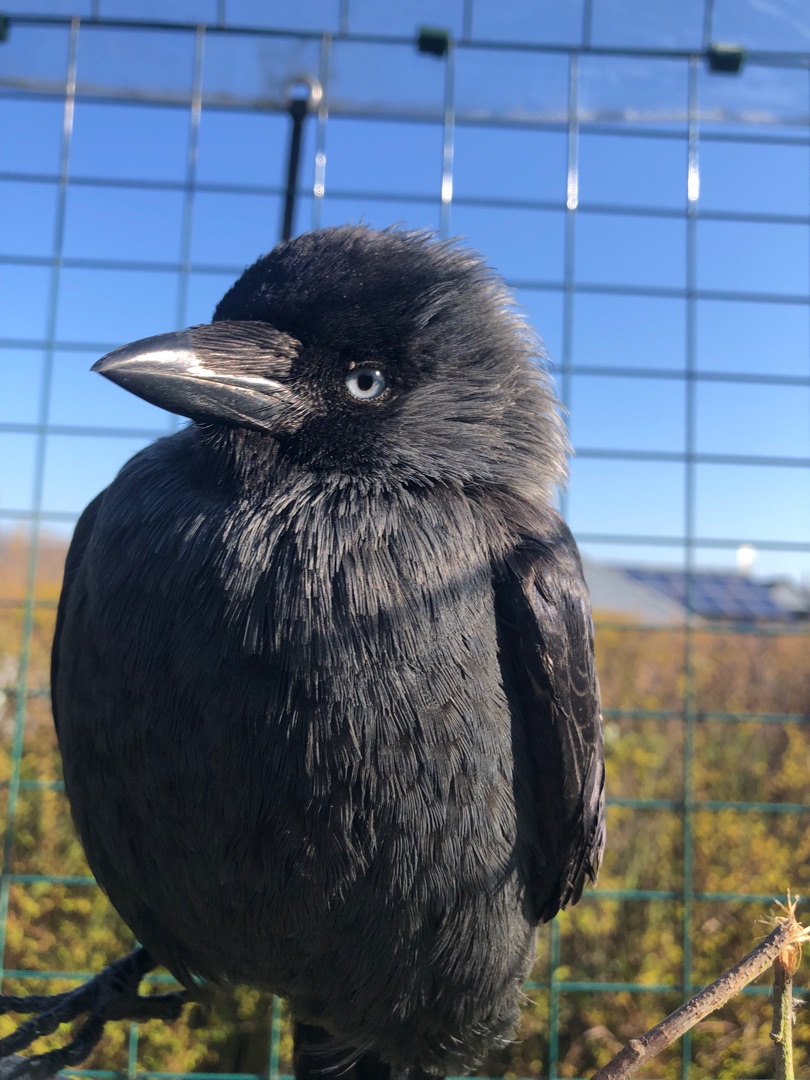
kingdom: Animalia
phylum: Chordata
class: Aves
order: Passeriformes
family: Corvidae
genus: Coloeus
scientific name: Coloeus monedula
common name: Allike
